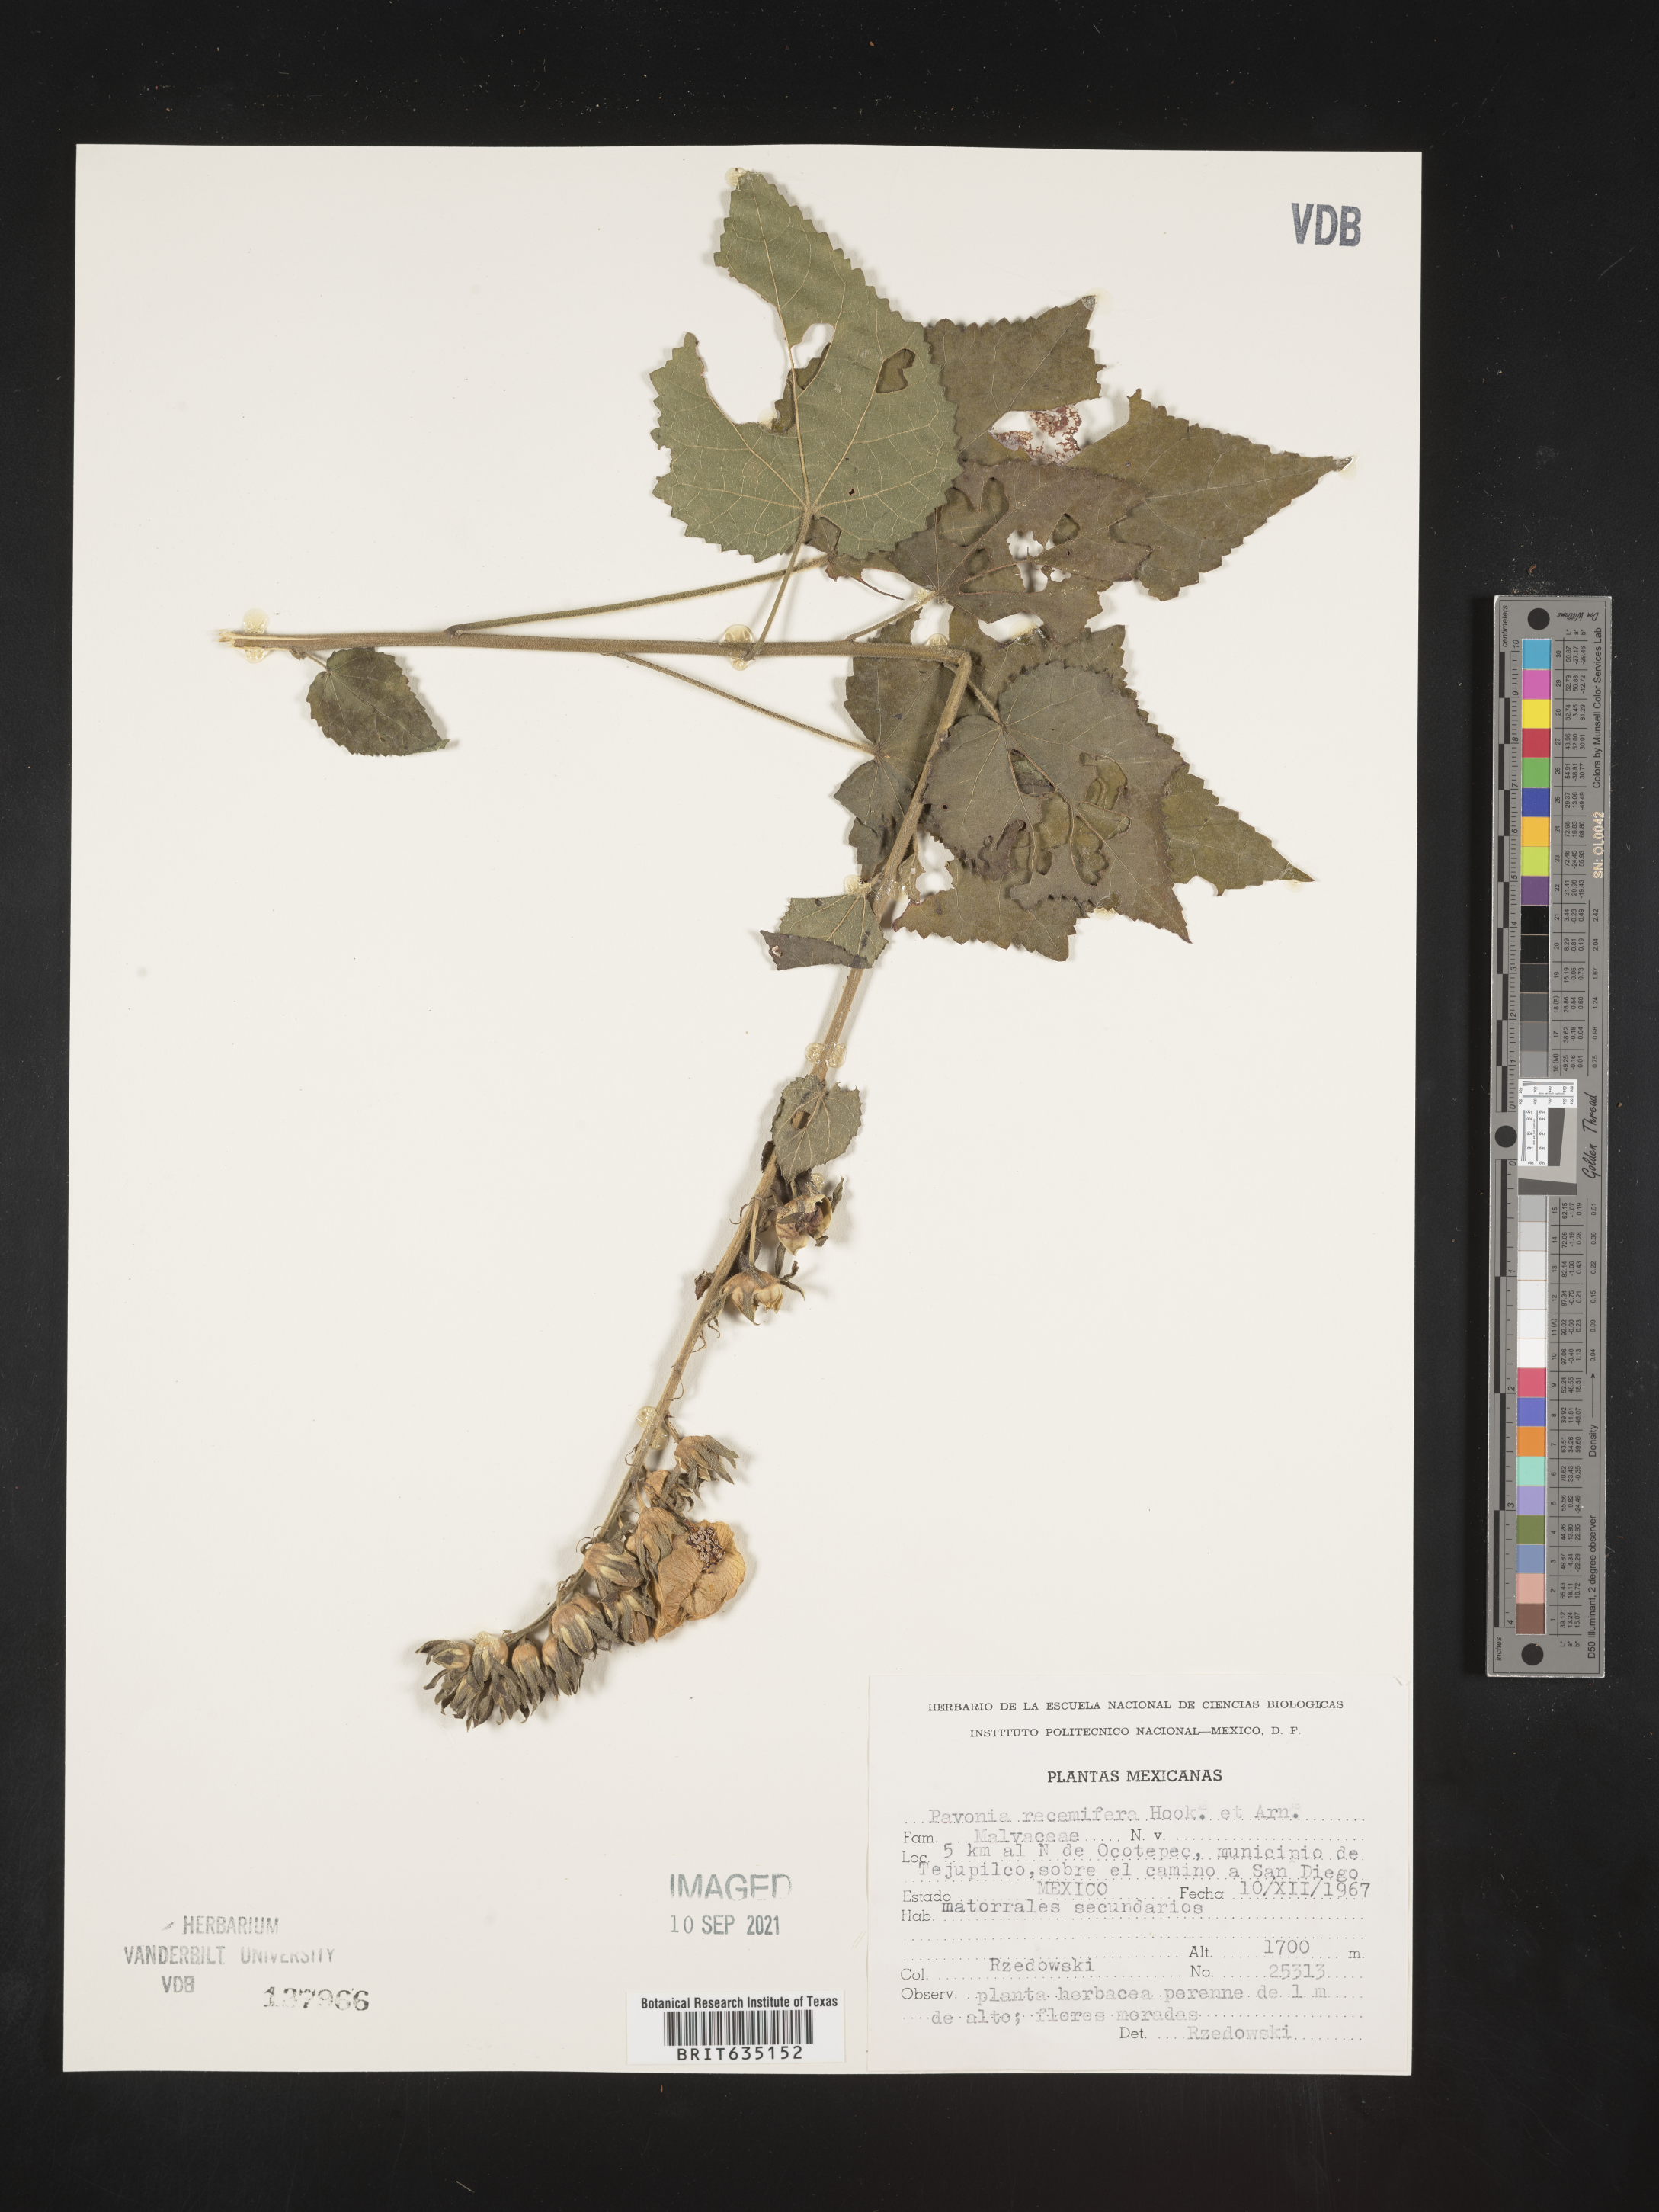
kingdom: Plantae
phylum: Tracheophyta
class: Magnoliopsida
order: Malvales
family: Malvaceae
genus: Pavonia
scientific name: Pavonia
